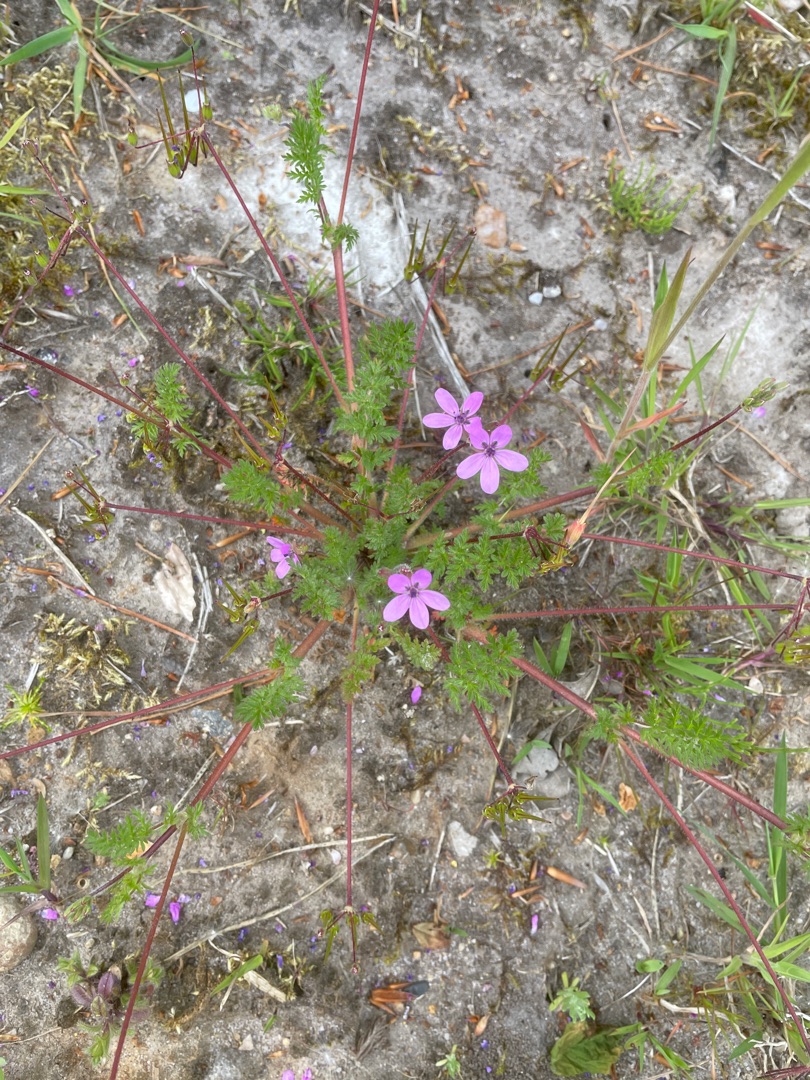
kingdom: Plantae
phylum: Tracheophyta
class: Magnoliopsida
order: Geraniales
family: Geraniaceae
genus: Erodium
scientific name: Erodium cicutarium
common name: Hejrenæb
